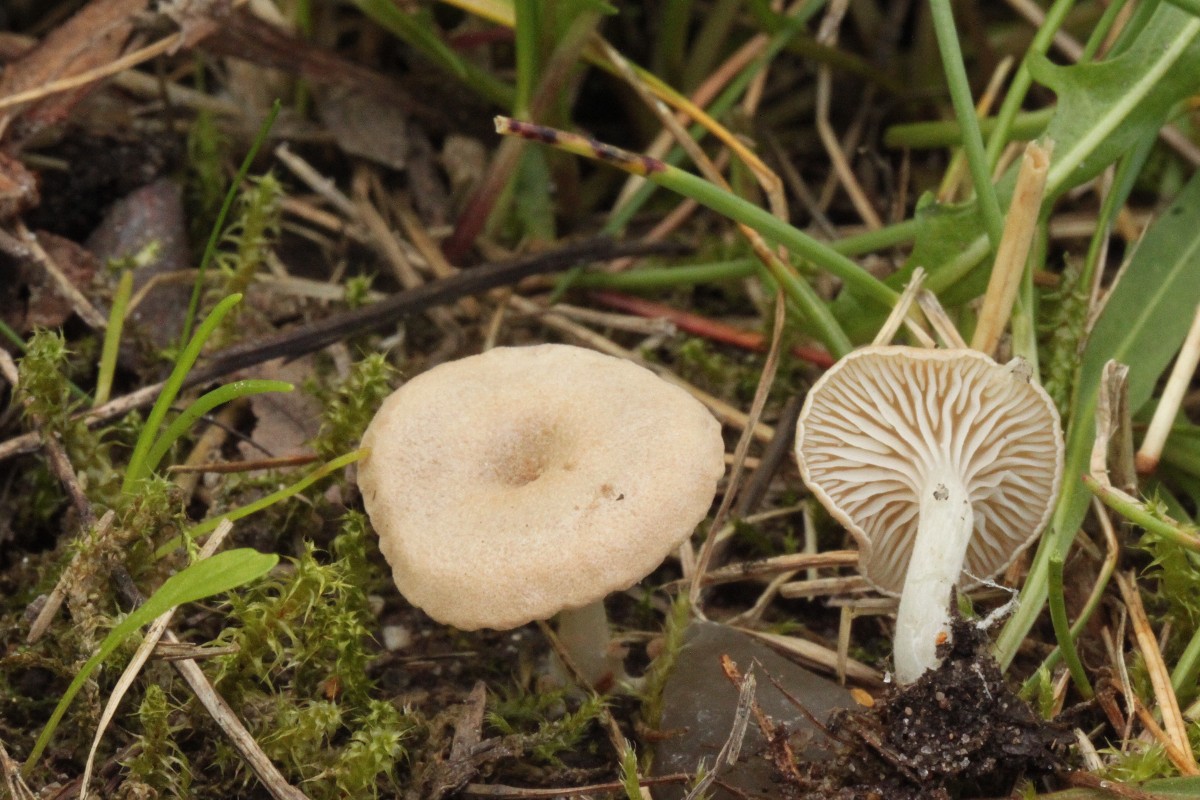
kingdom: Fungi
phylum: Basidiomycota
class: Agaricomycetes
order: Agaricales
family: Entolomataceae
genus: Entoloma
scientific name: Entoloma neglectum
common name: bleg rødblad
